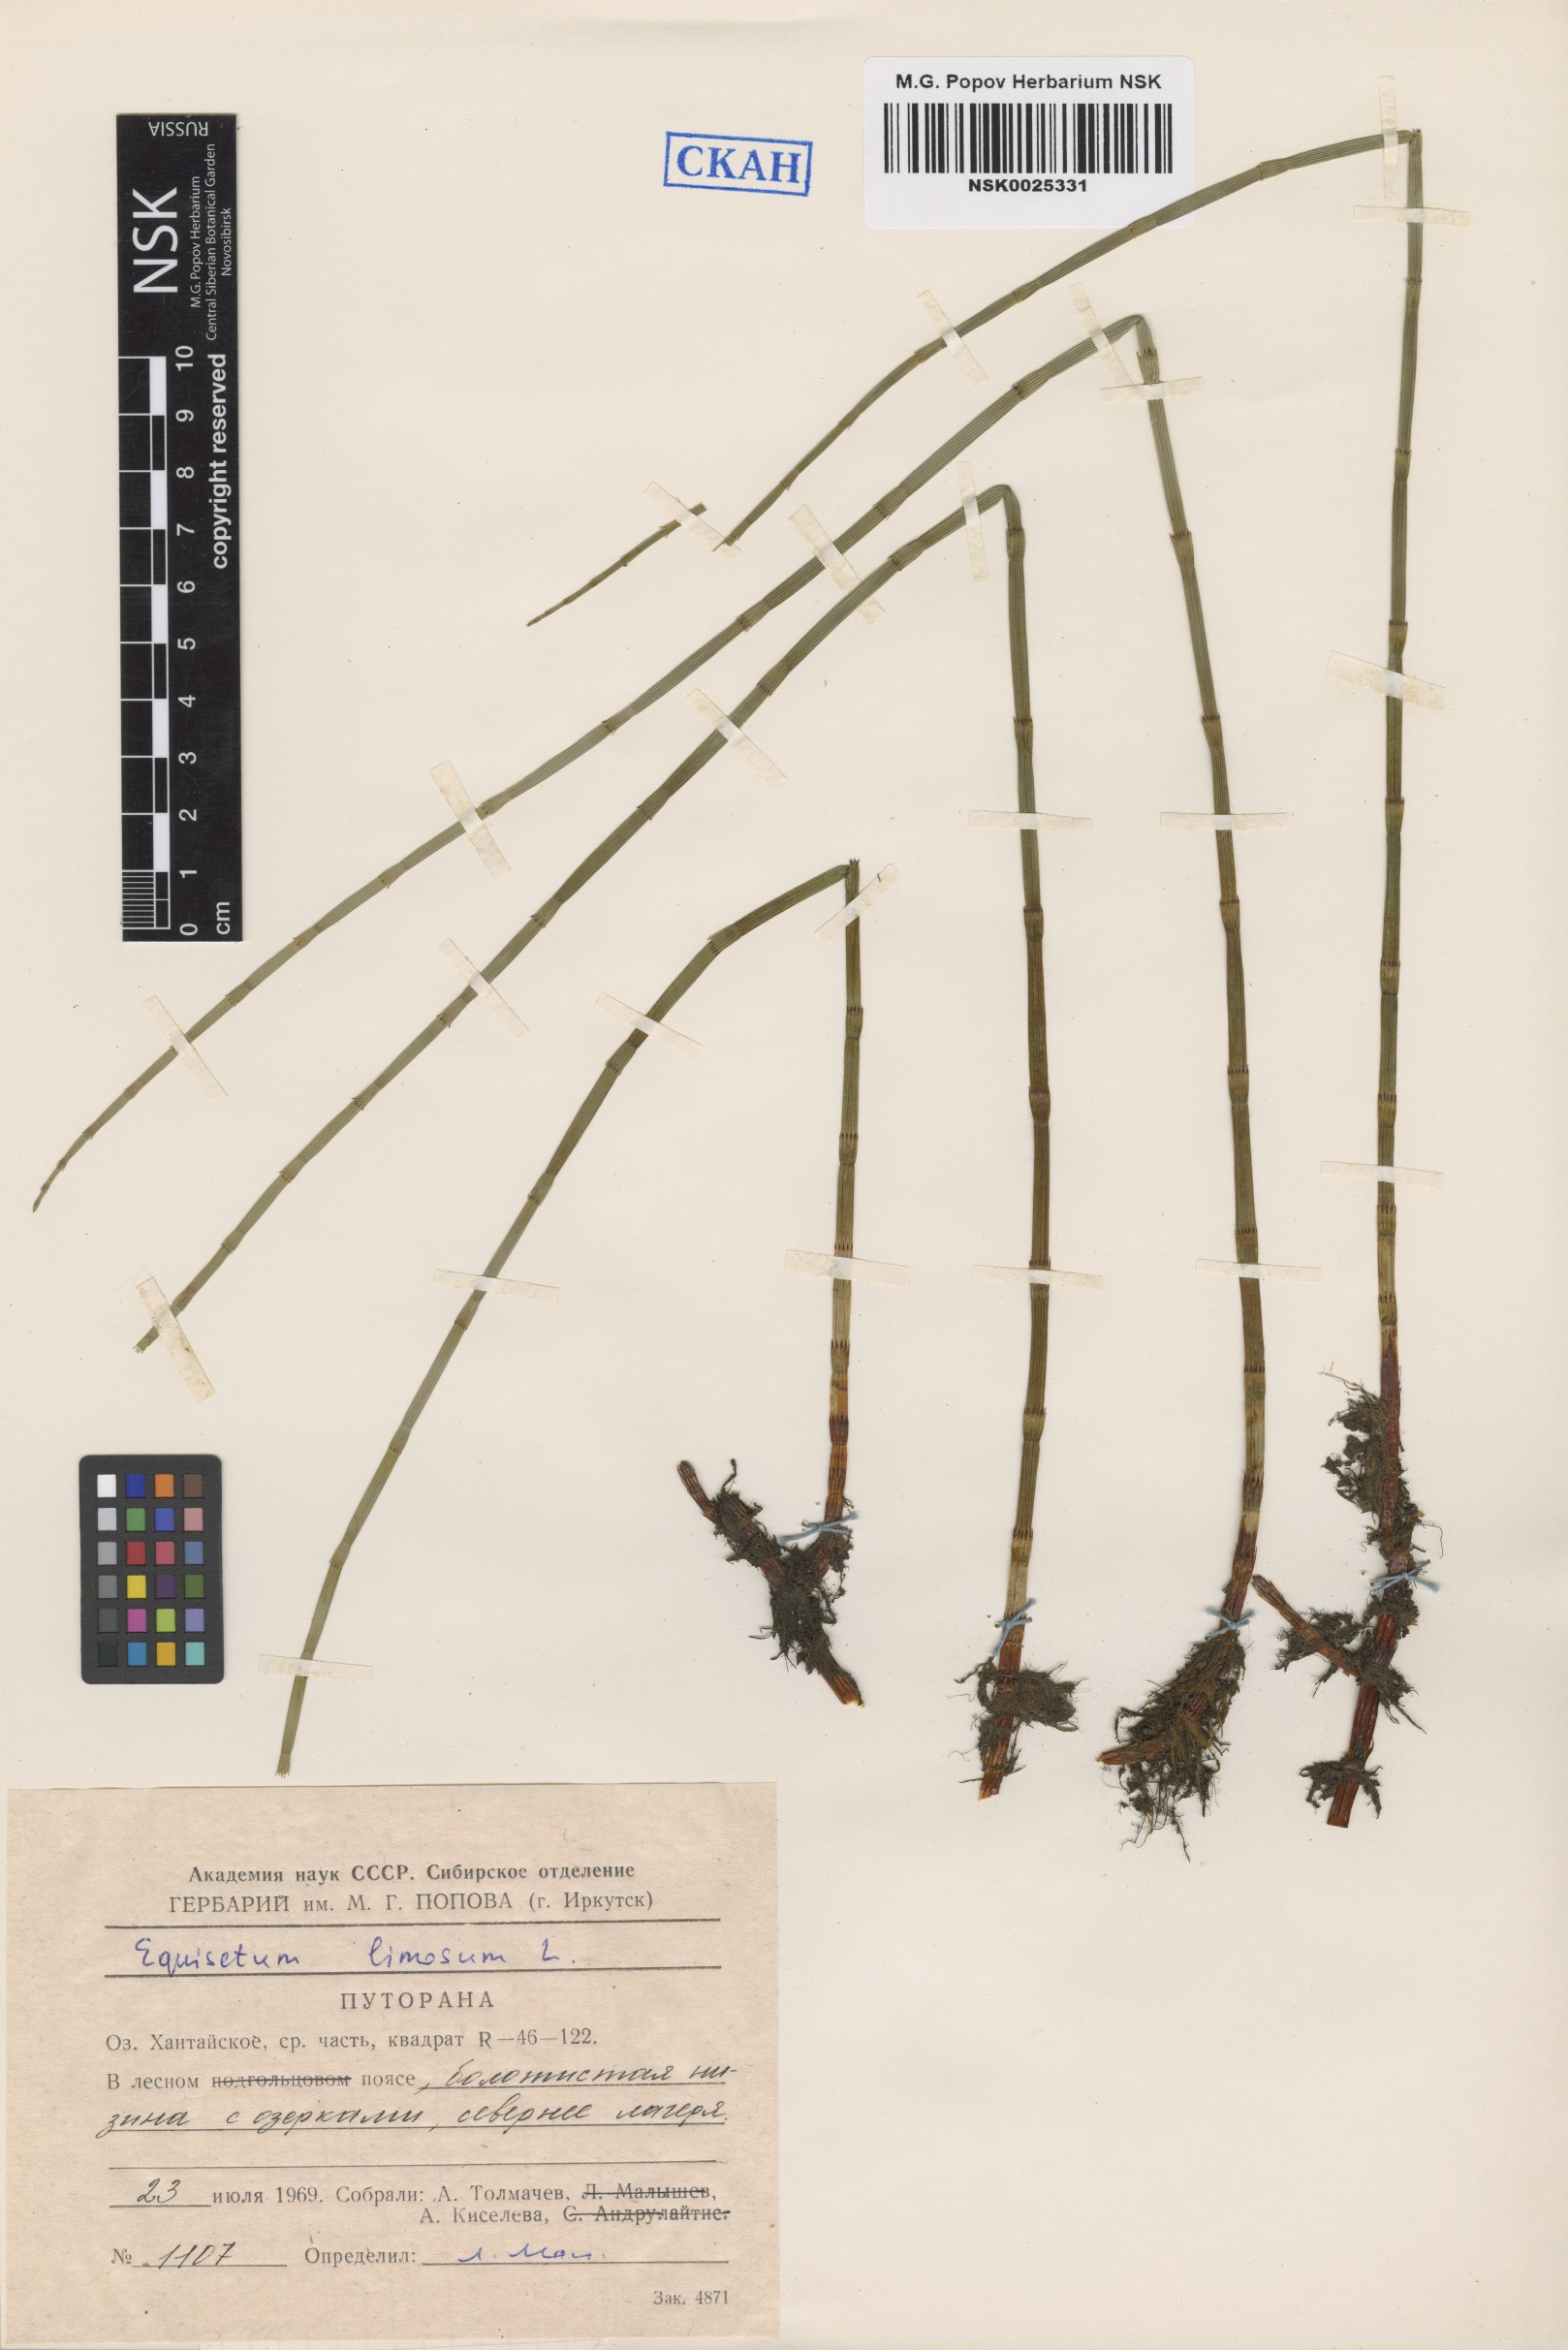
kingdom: Plantae
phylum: Tracheophyta
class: Polypodiopsida
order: Equisetales
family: Equisetaceae
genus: Equisetum
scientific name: Equisetum fluviatile
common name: Water horsetail
